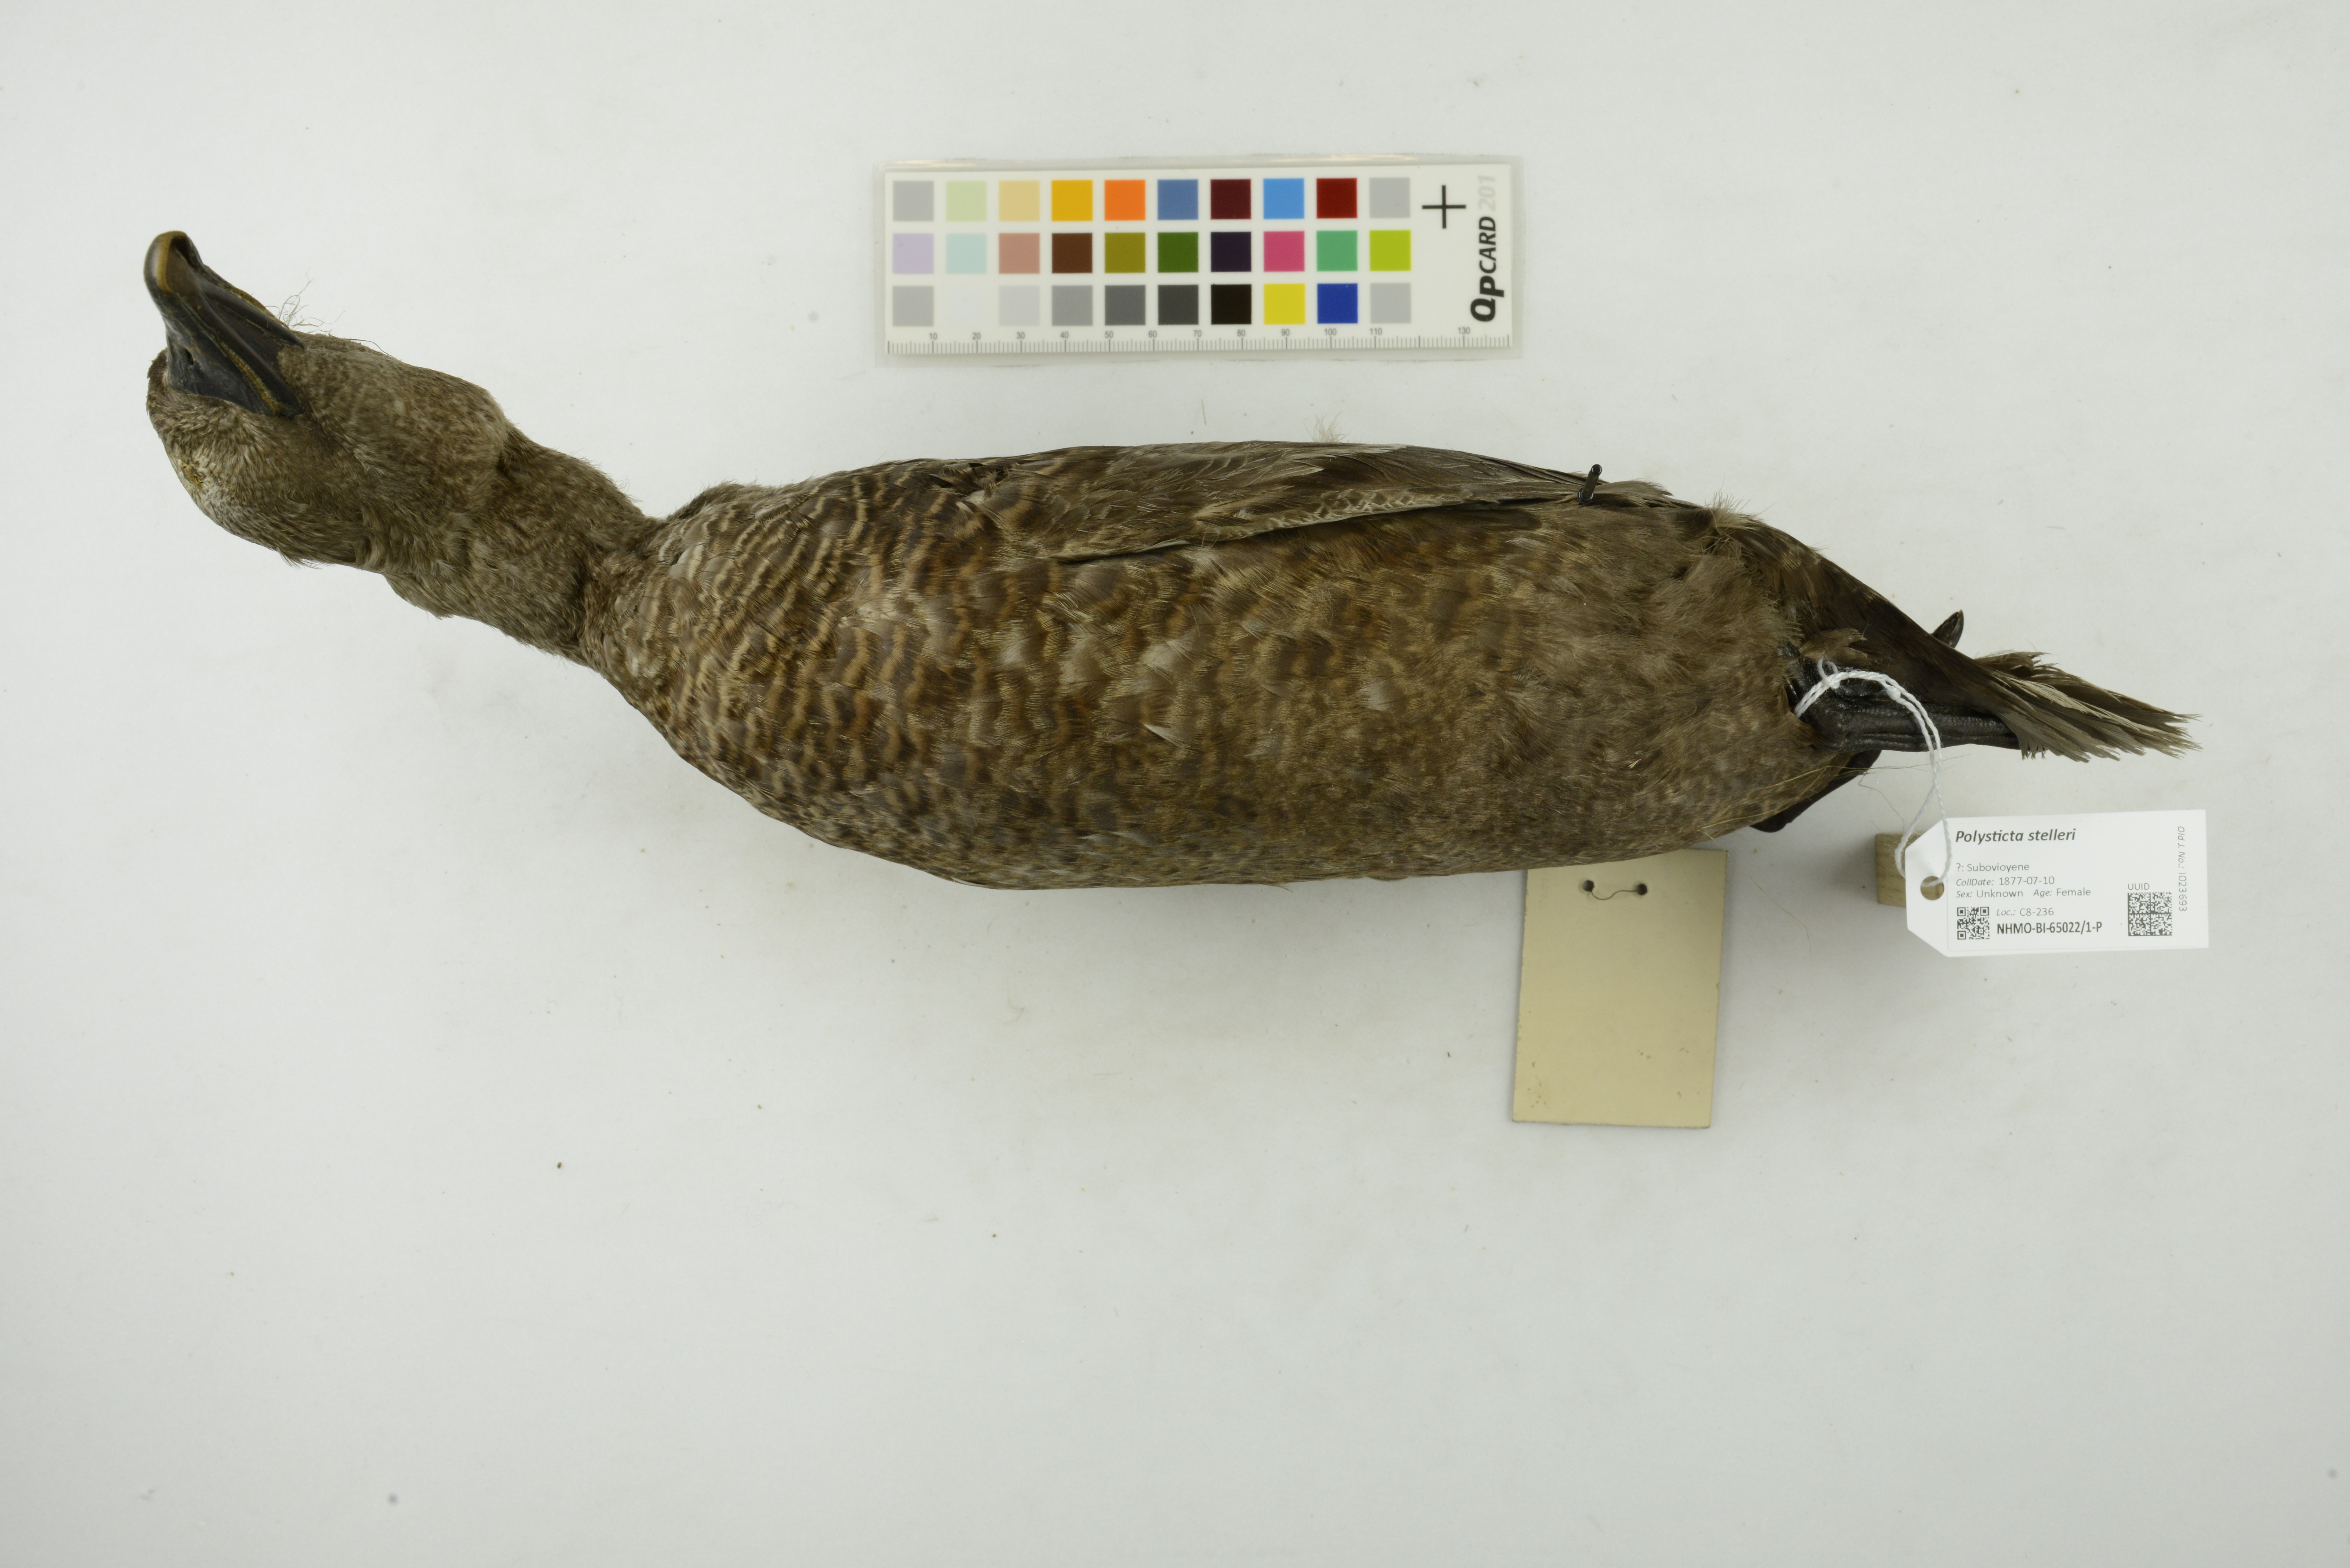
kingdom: Animalia
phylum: Chordata
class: Aves
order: Anseriformes
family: Anatidae
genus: Polysticta
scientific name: Polysticta stelleri
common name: Steller's eider
